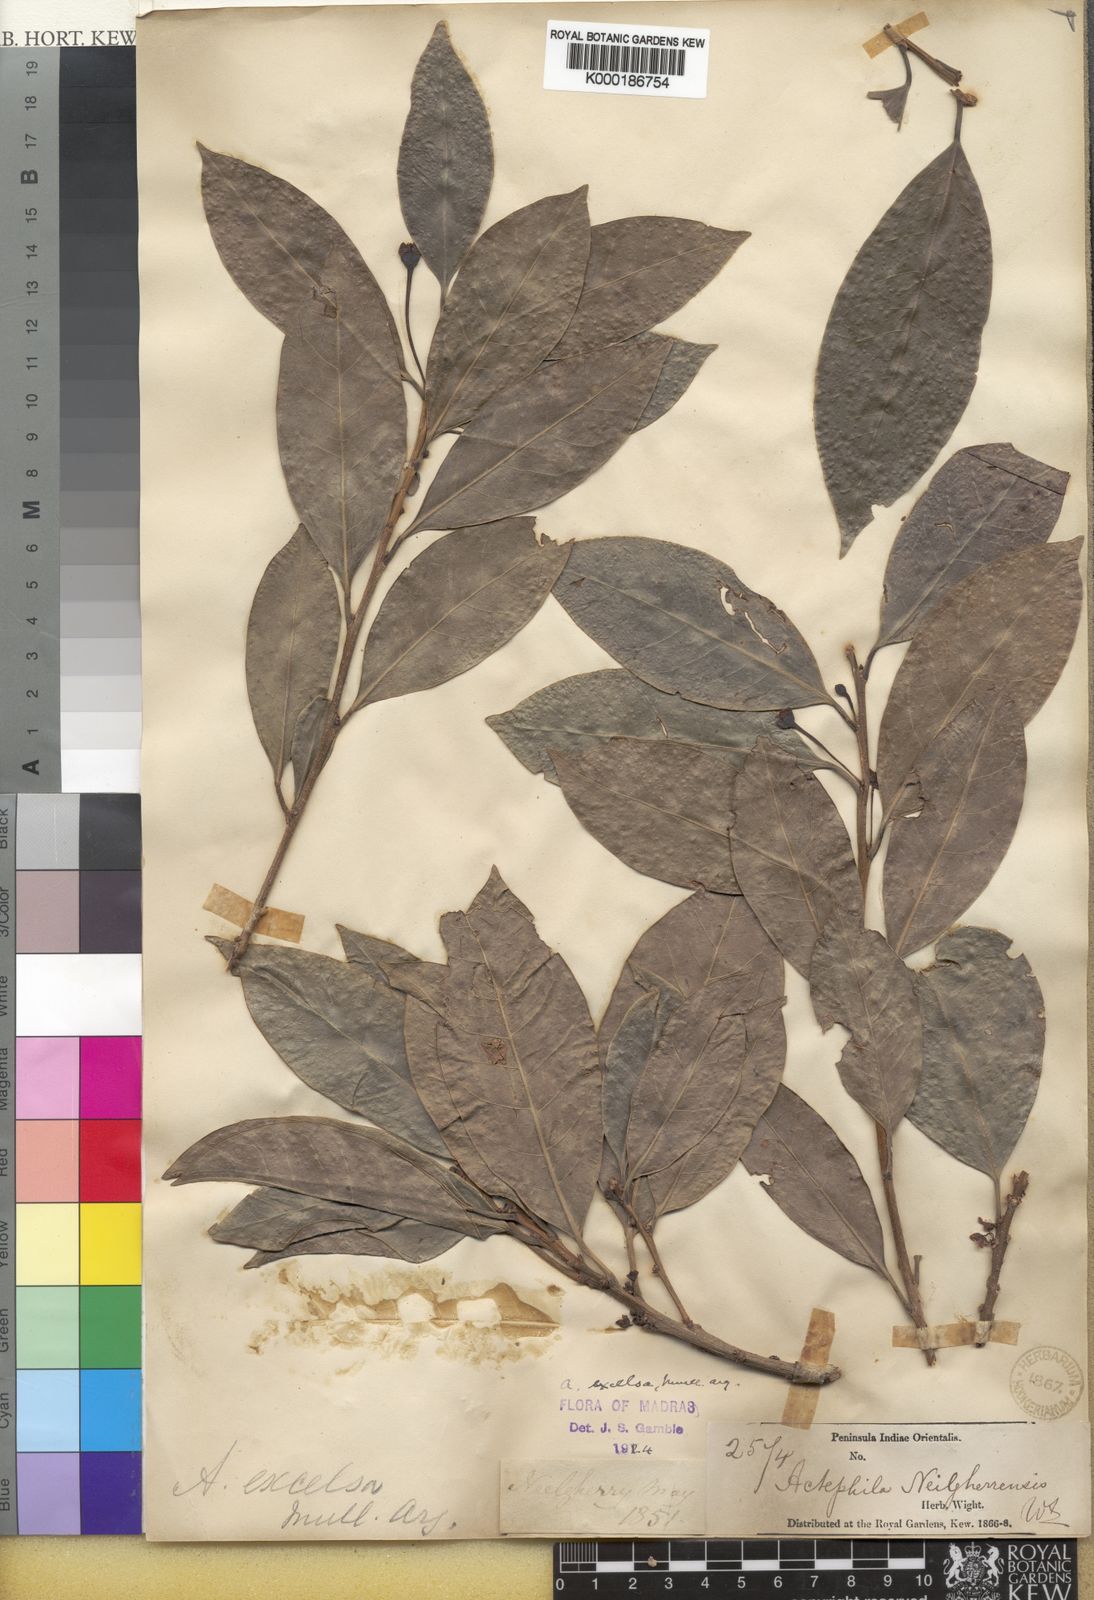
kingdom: Plantae
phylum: Tracheophyta
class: Magnoliopsida
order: Malpighiales
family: Phyllanthaceae
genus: Actephila
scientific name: Actephila
